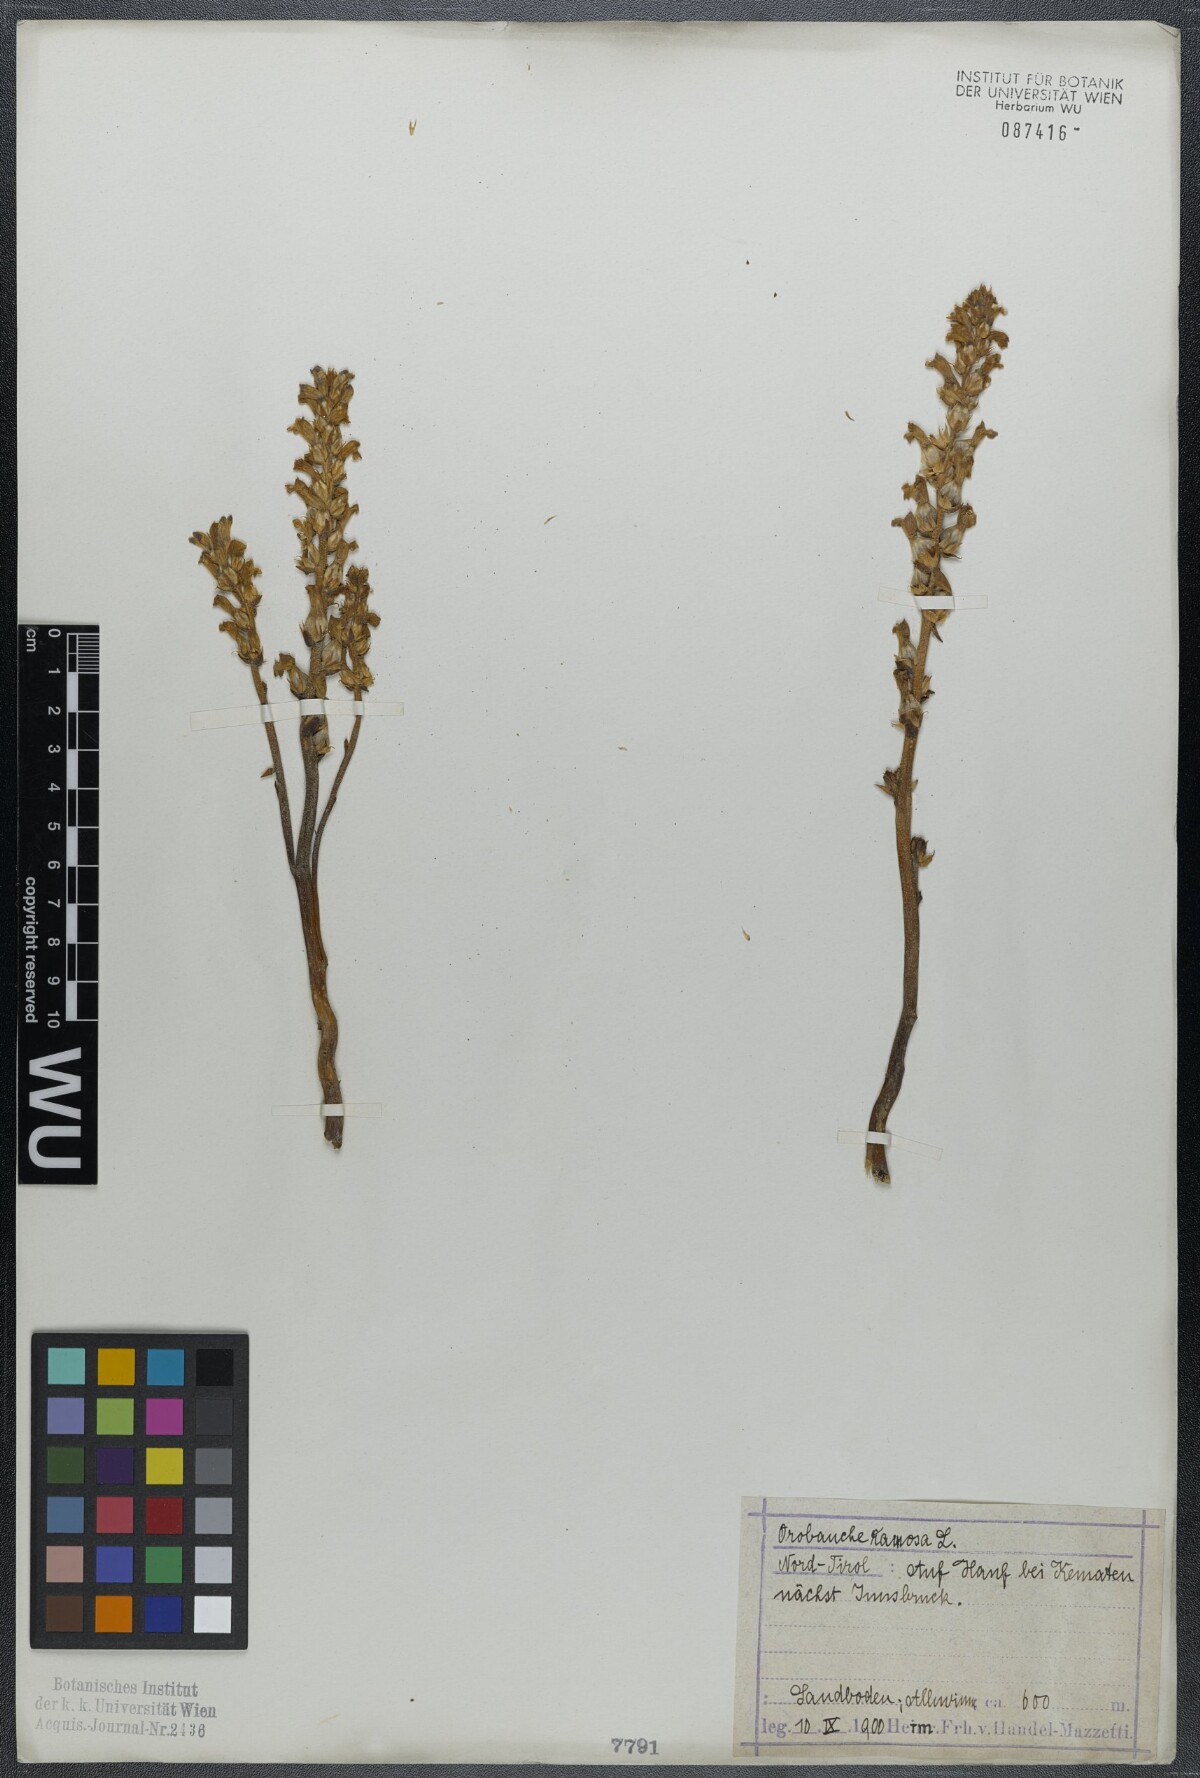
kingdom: Plantae
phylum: Tracheophyta
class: Magnoliopsida
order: Lamiales
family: Orobanchaceae
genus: Phelipanche
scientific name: Phelipanche ramosa
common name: Branched broomrape
